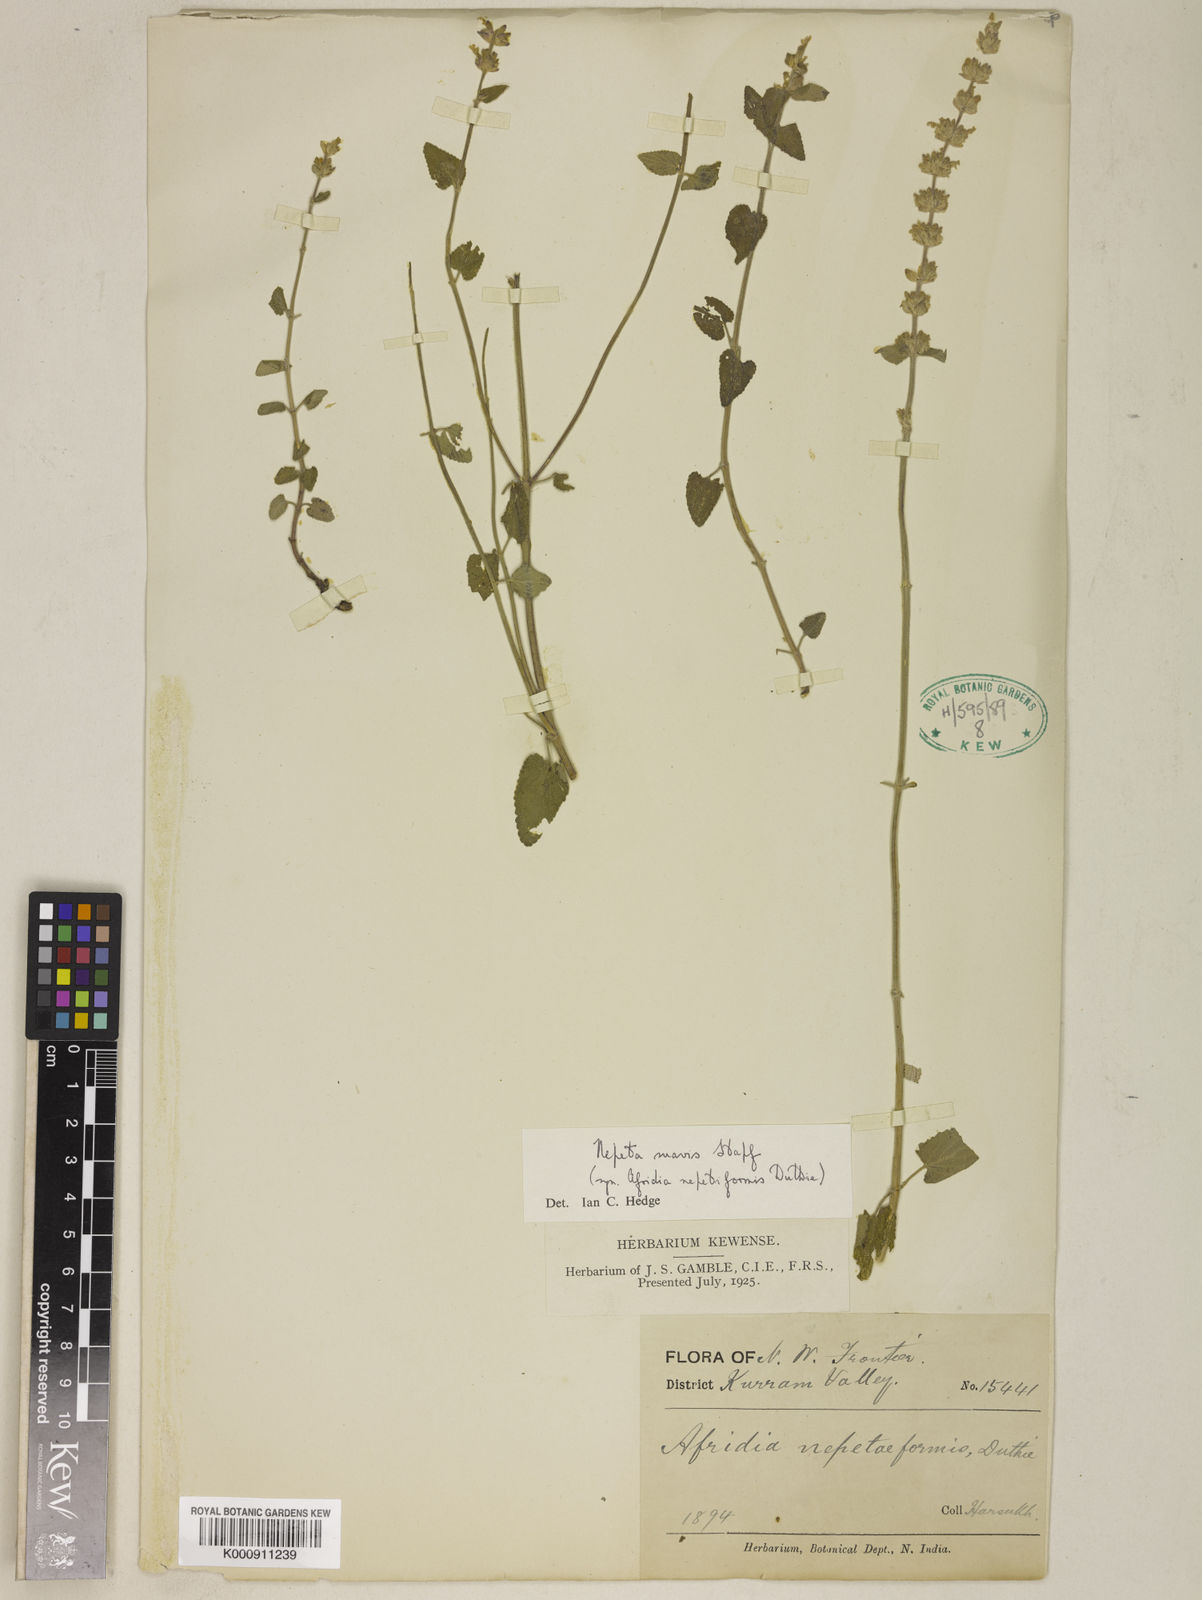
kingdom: Plantae
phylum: Tracheophyta
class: Magnoliopsida
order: Lamiales
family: Lamiaceae
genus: Nepeta
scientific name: Nepeta suavis
